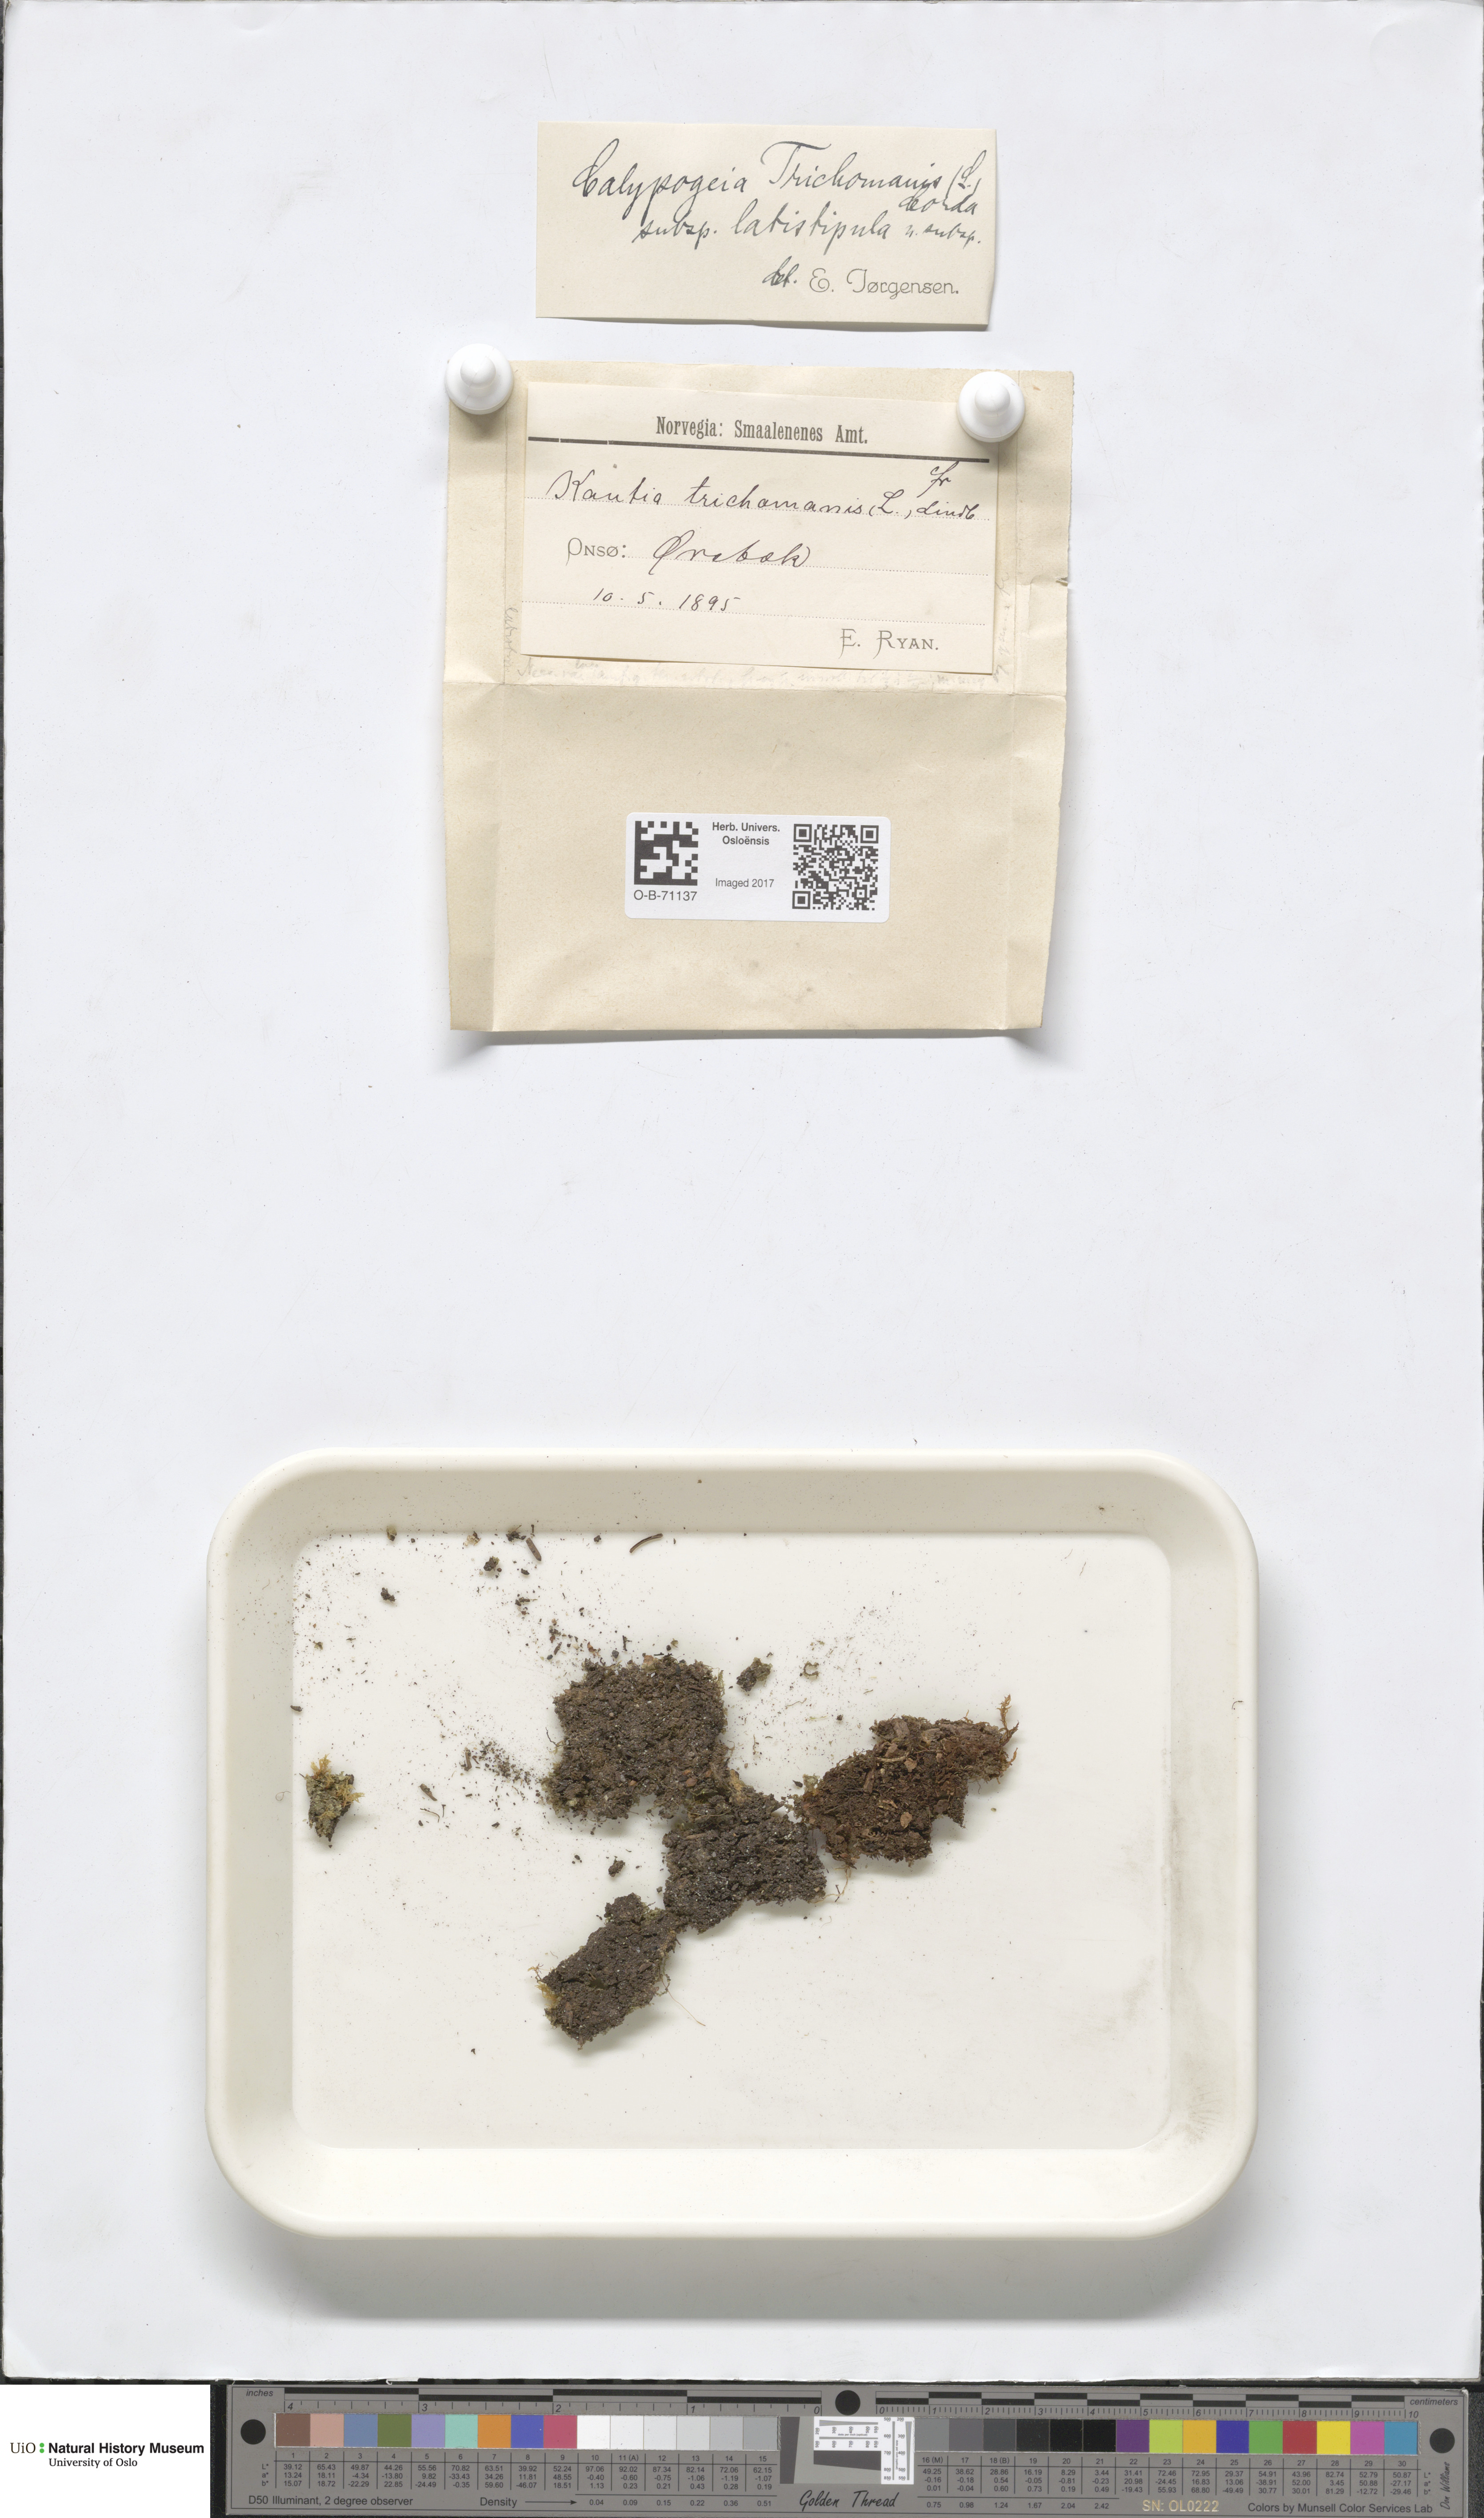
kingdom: Plantae
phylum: Marchantiophyta
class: Jungermanniopsida
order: Jungermanniales
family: Calypogeiaceae
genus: Calypogeia
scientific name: Calypogeia neesiana
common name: Nees  pouchwort
